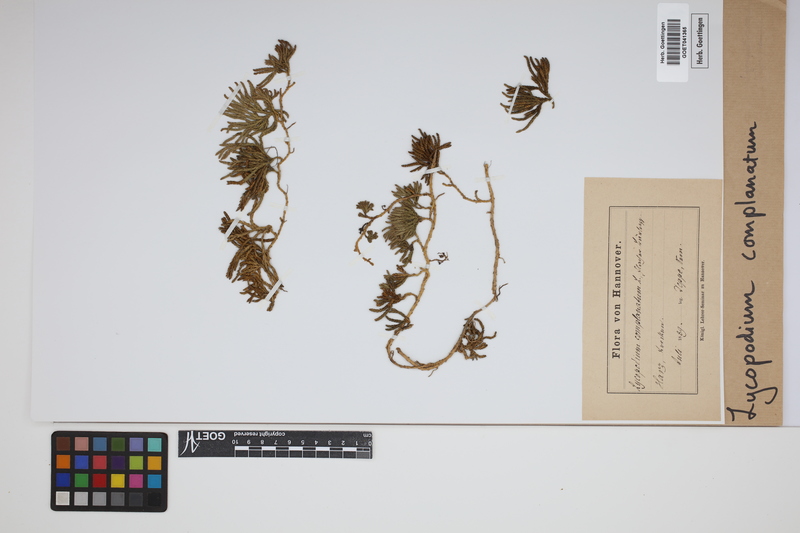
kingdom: Plantae
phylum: Tracheophyta
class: Lycopodiopsida
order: Lycopodiales
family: Lycopodiaceae
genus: Diphasiastrum
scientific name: Diphasiastrum complanatum
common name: Northern running-pine
